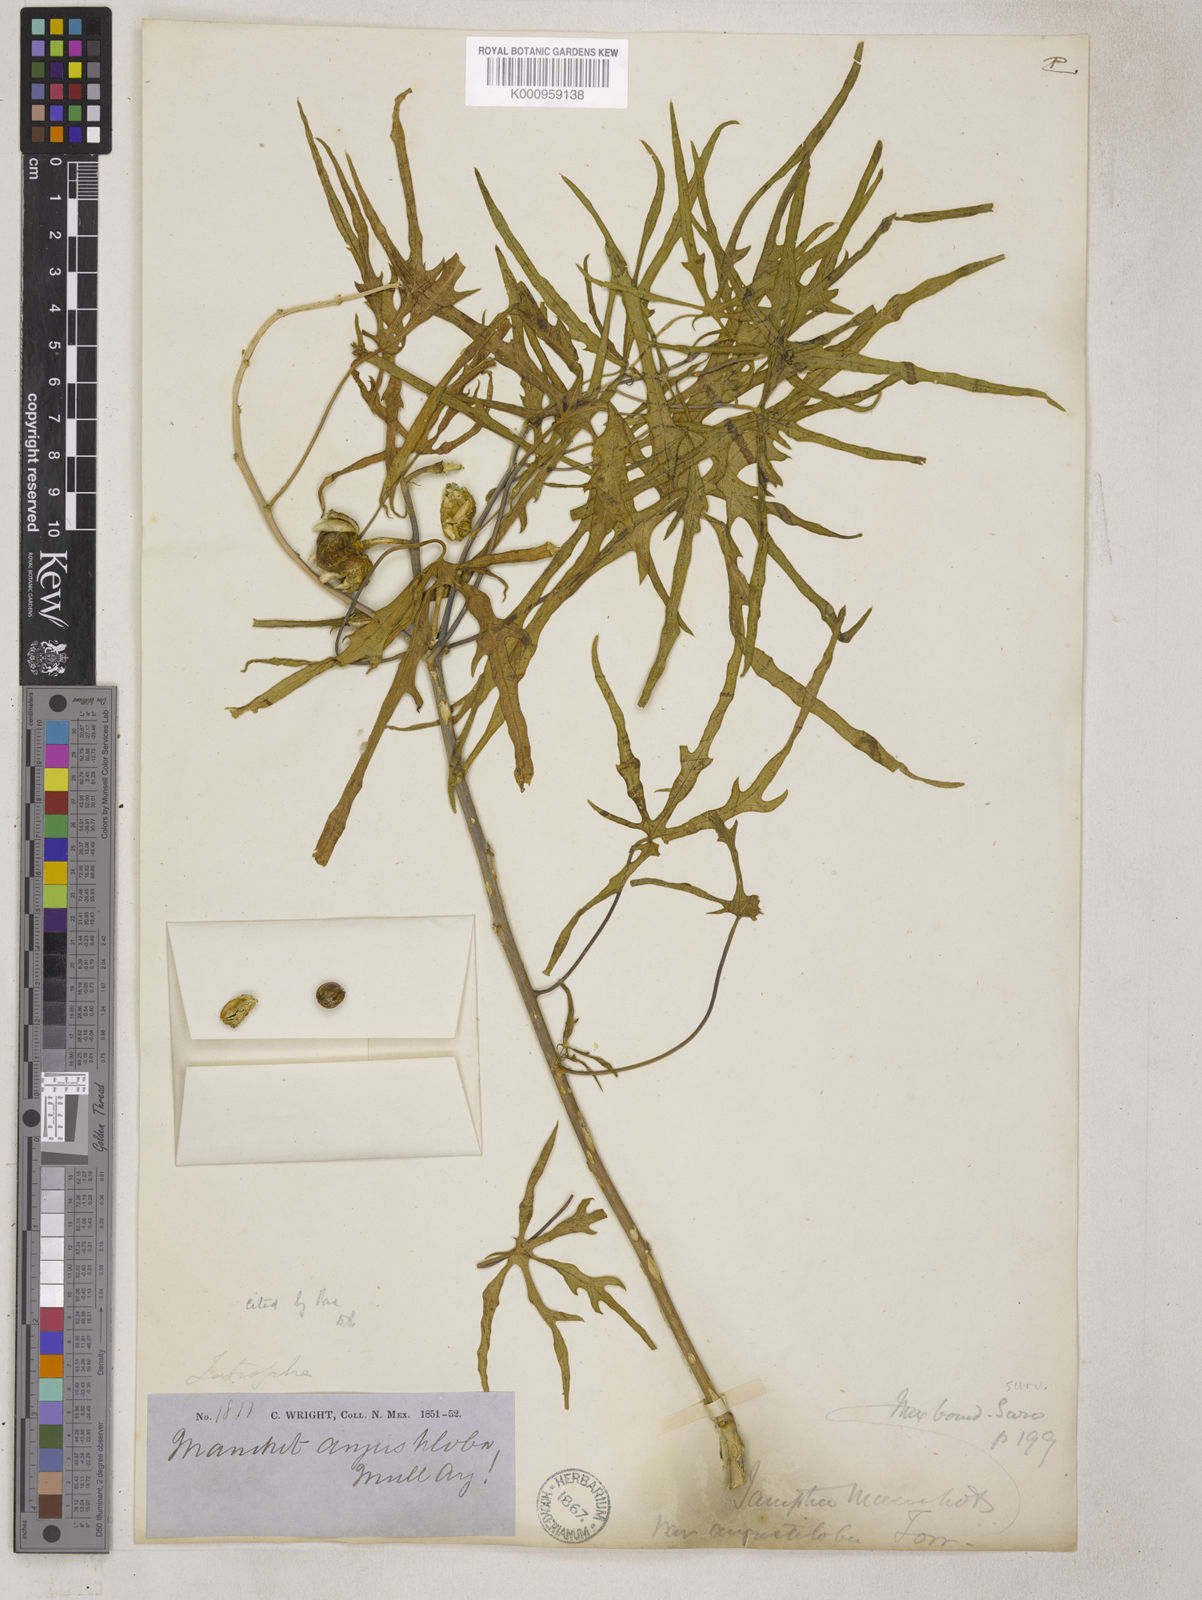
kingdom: Plantae
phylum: Tracheophyta
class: Magnoliopsida
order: Malpighiales
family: Euphorbiaceae
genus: Manihot
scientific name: Manihot
